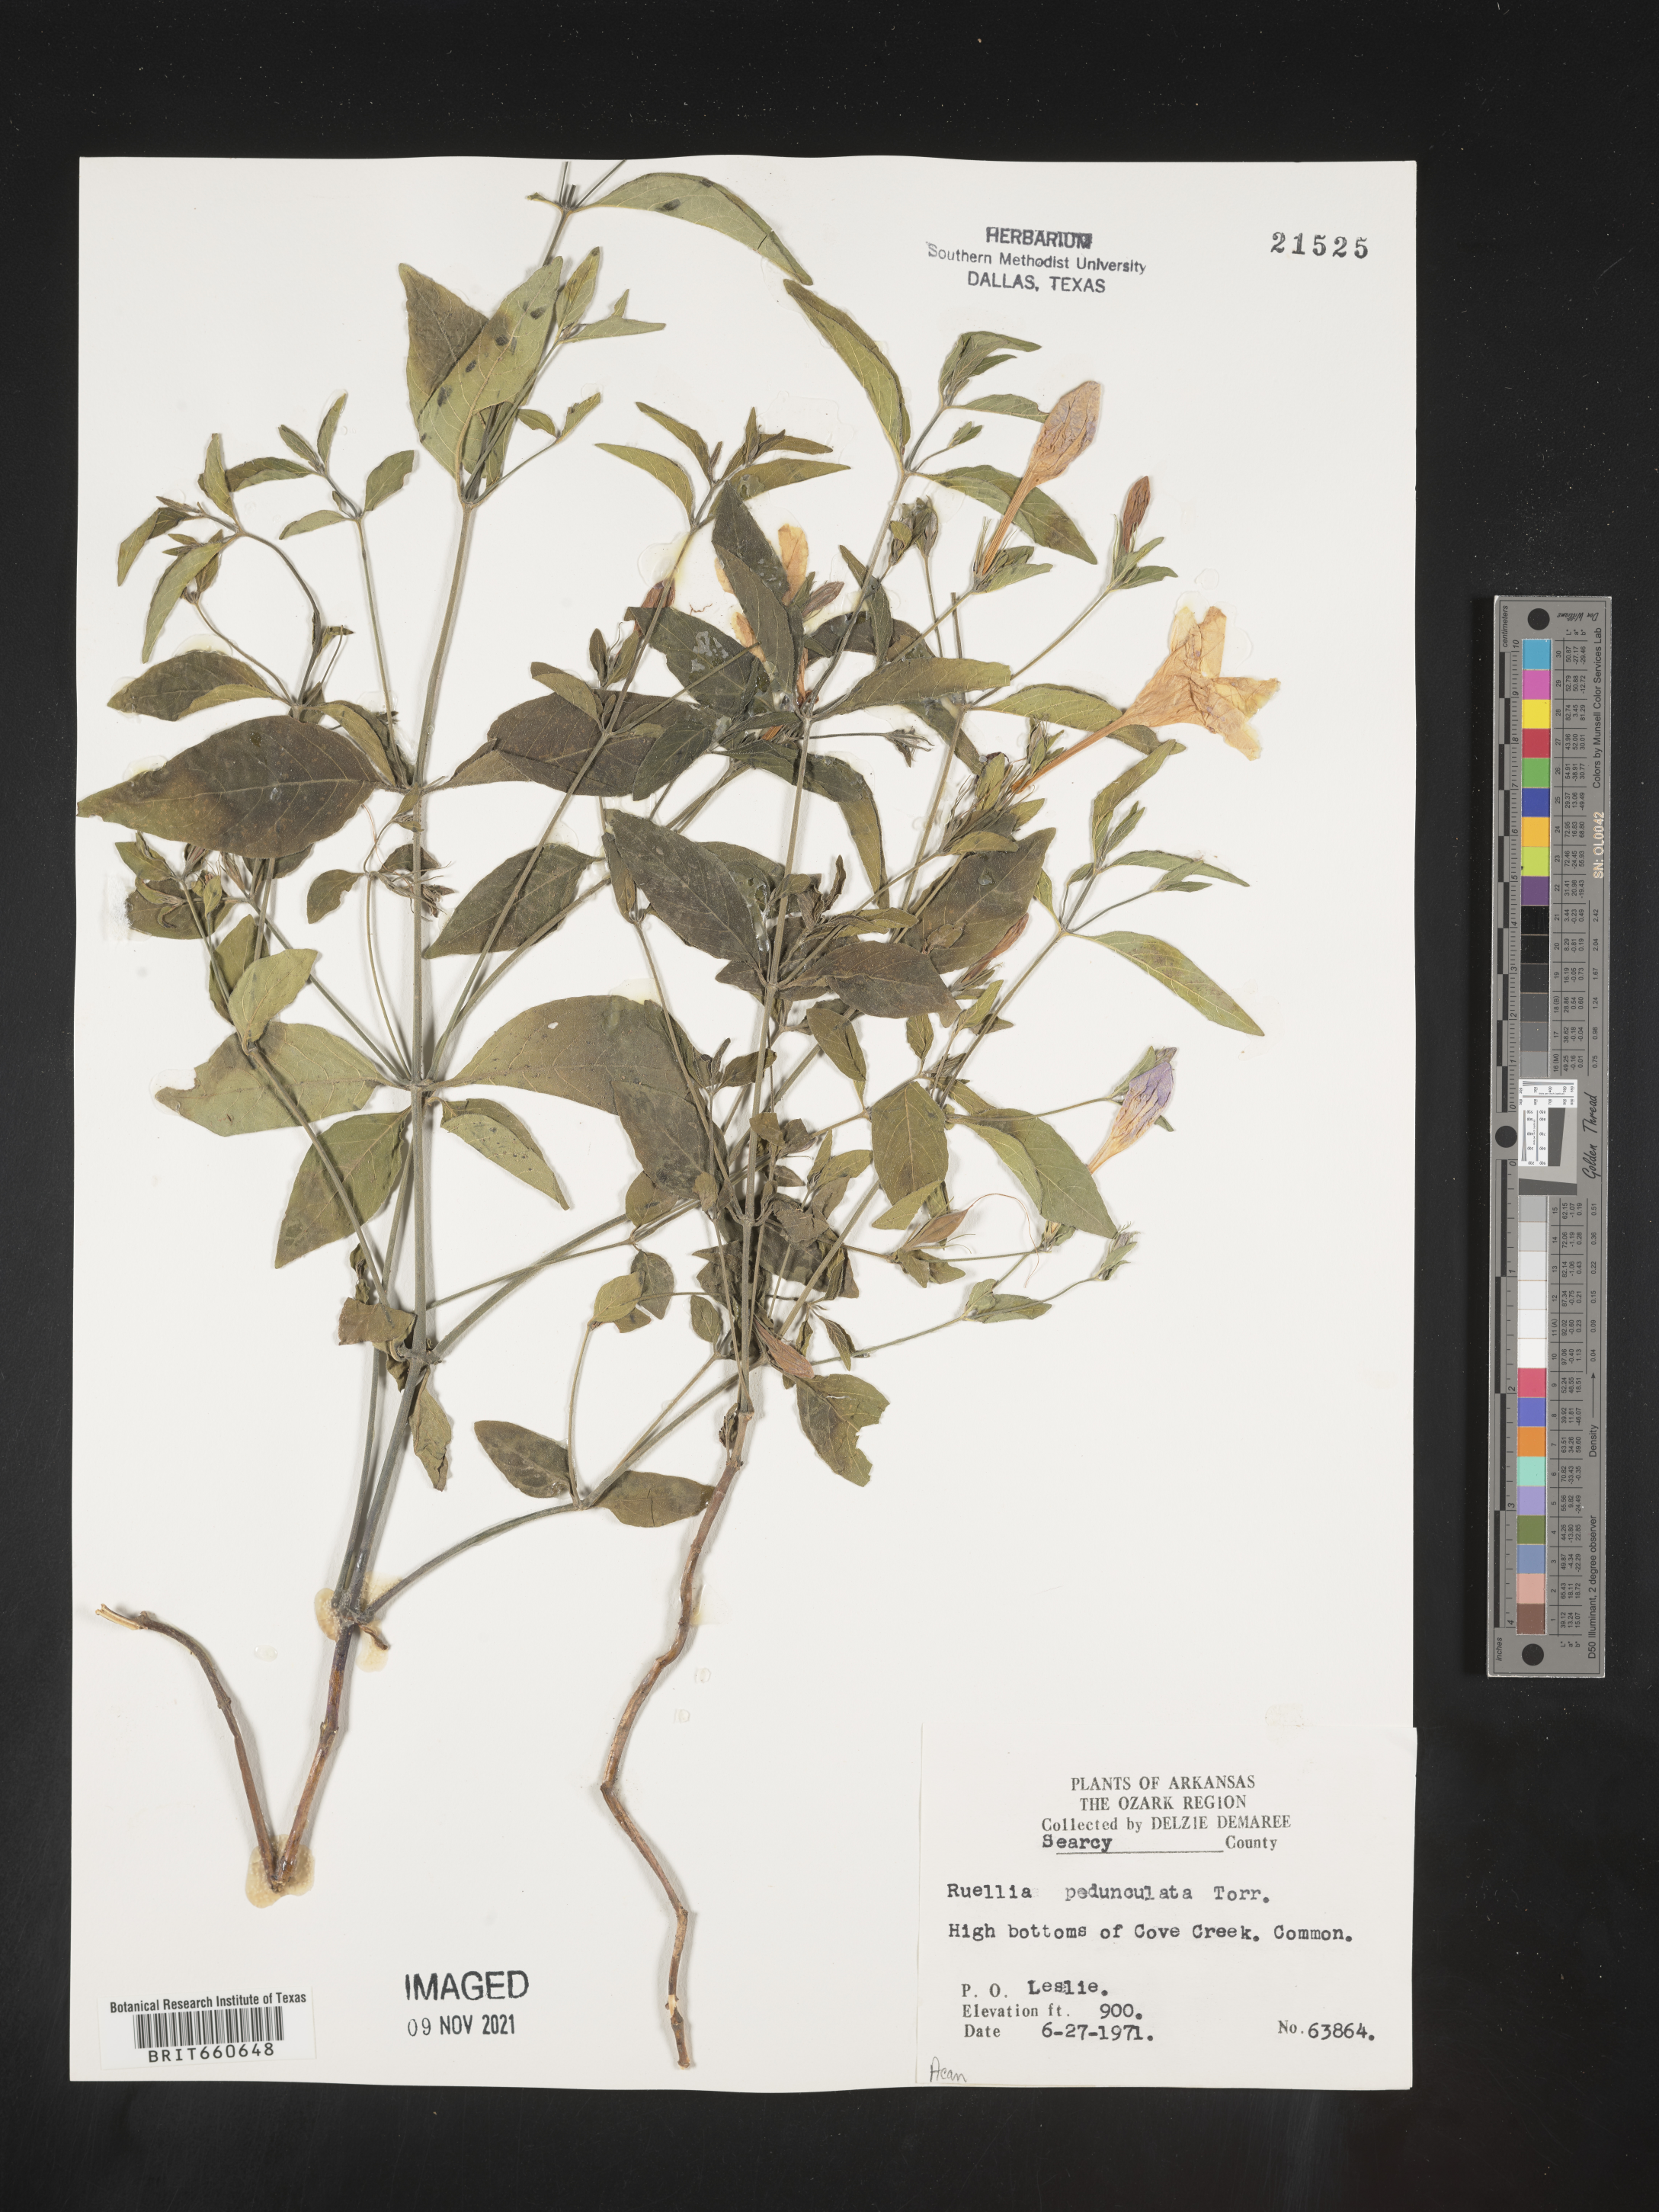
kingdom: Plantae
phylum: Tracheophyta
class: Magnoliopsida
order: Lamiales
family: Acanthaceae
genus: Ruellia
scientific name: Ruellia pedunculata
